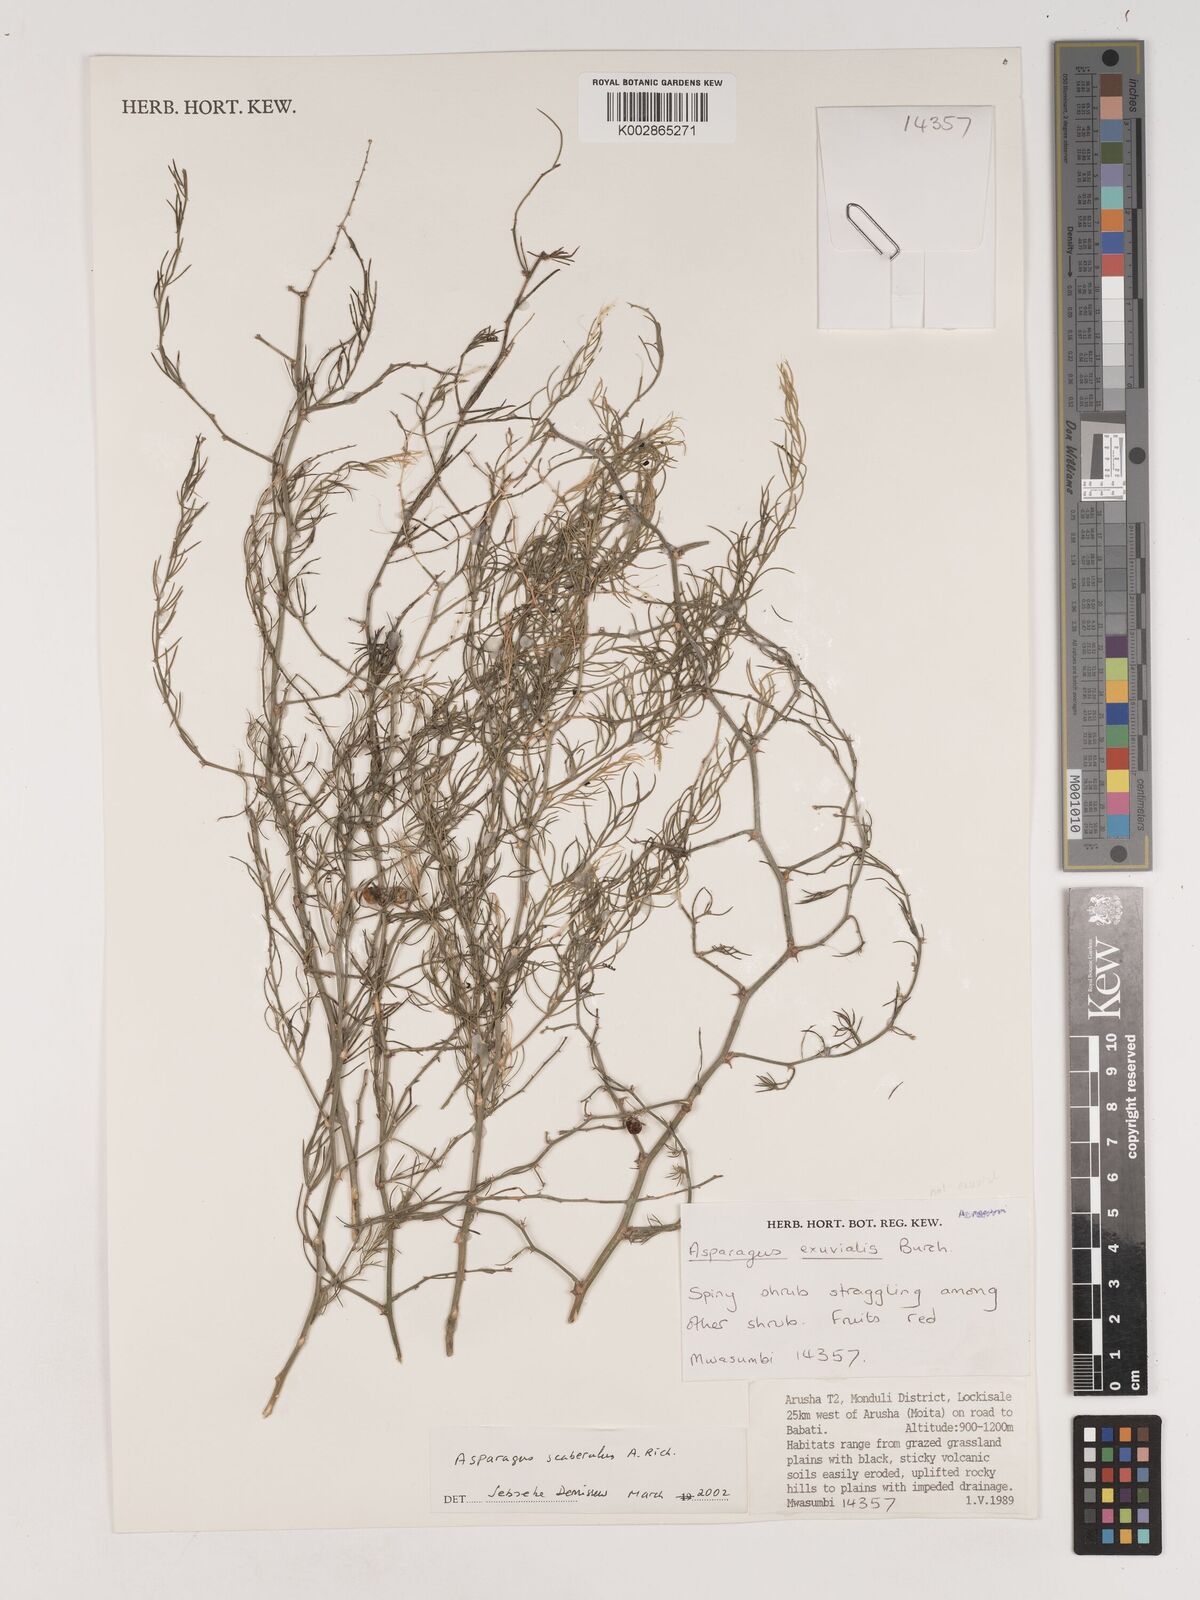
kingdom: Plantae
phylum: Tracheophyta
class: Liliopsida
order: Asparagales
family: Asparagaceae
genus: Asparagus
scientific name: Asparagus scaberulus
